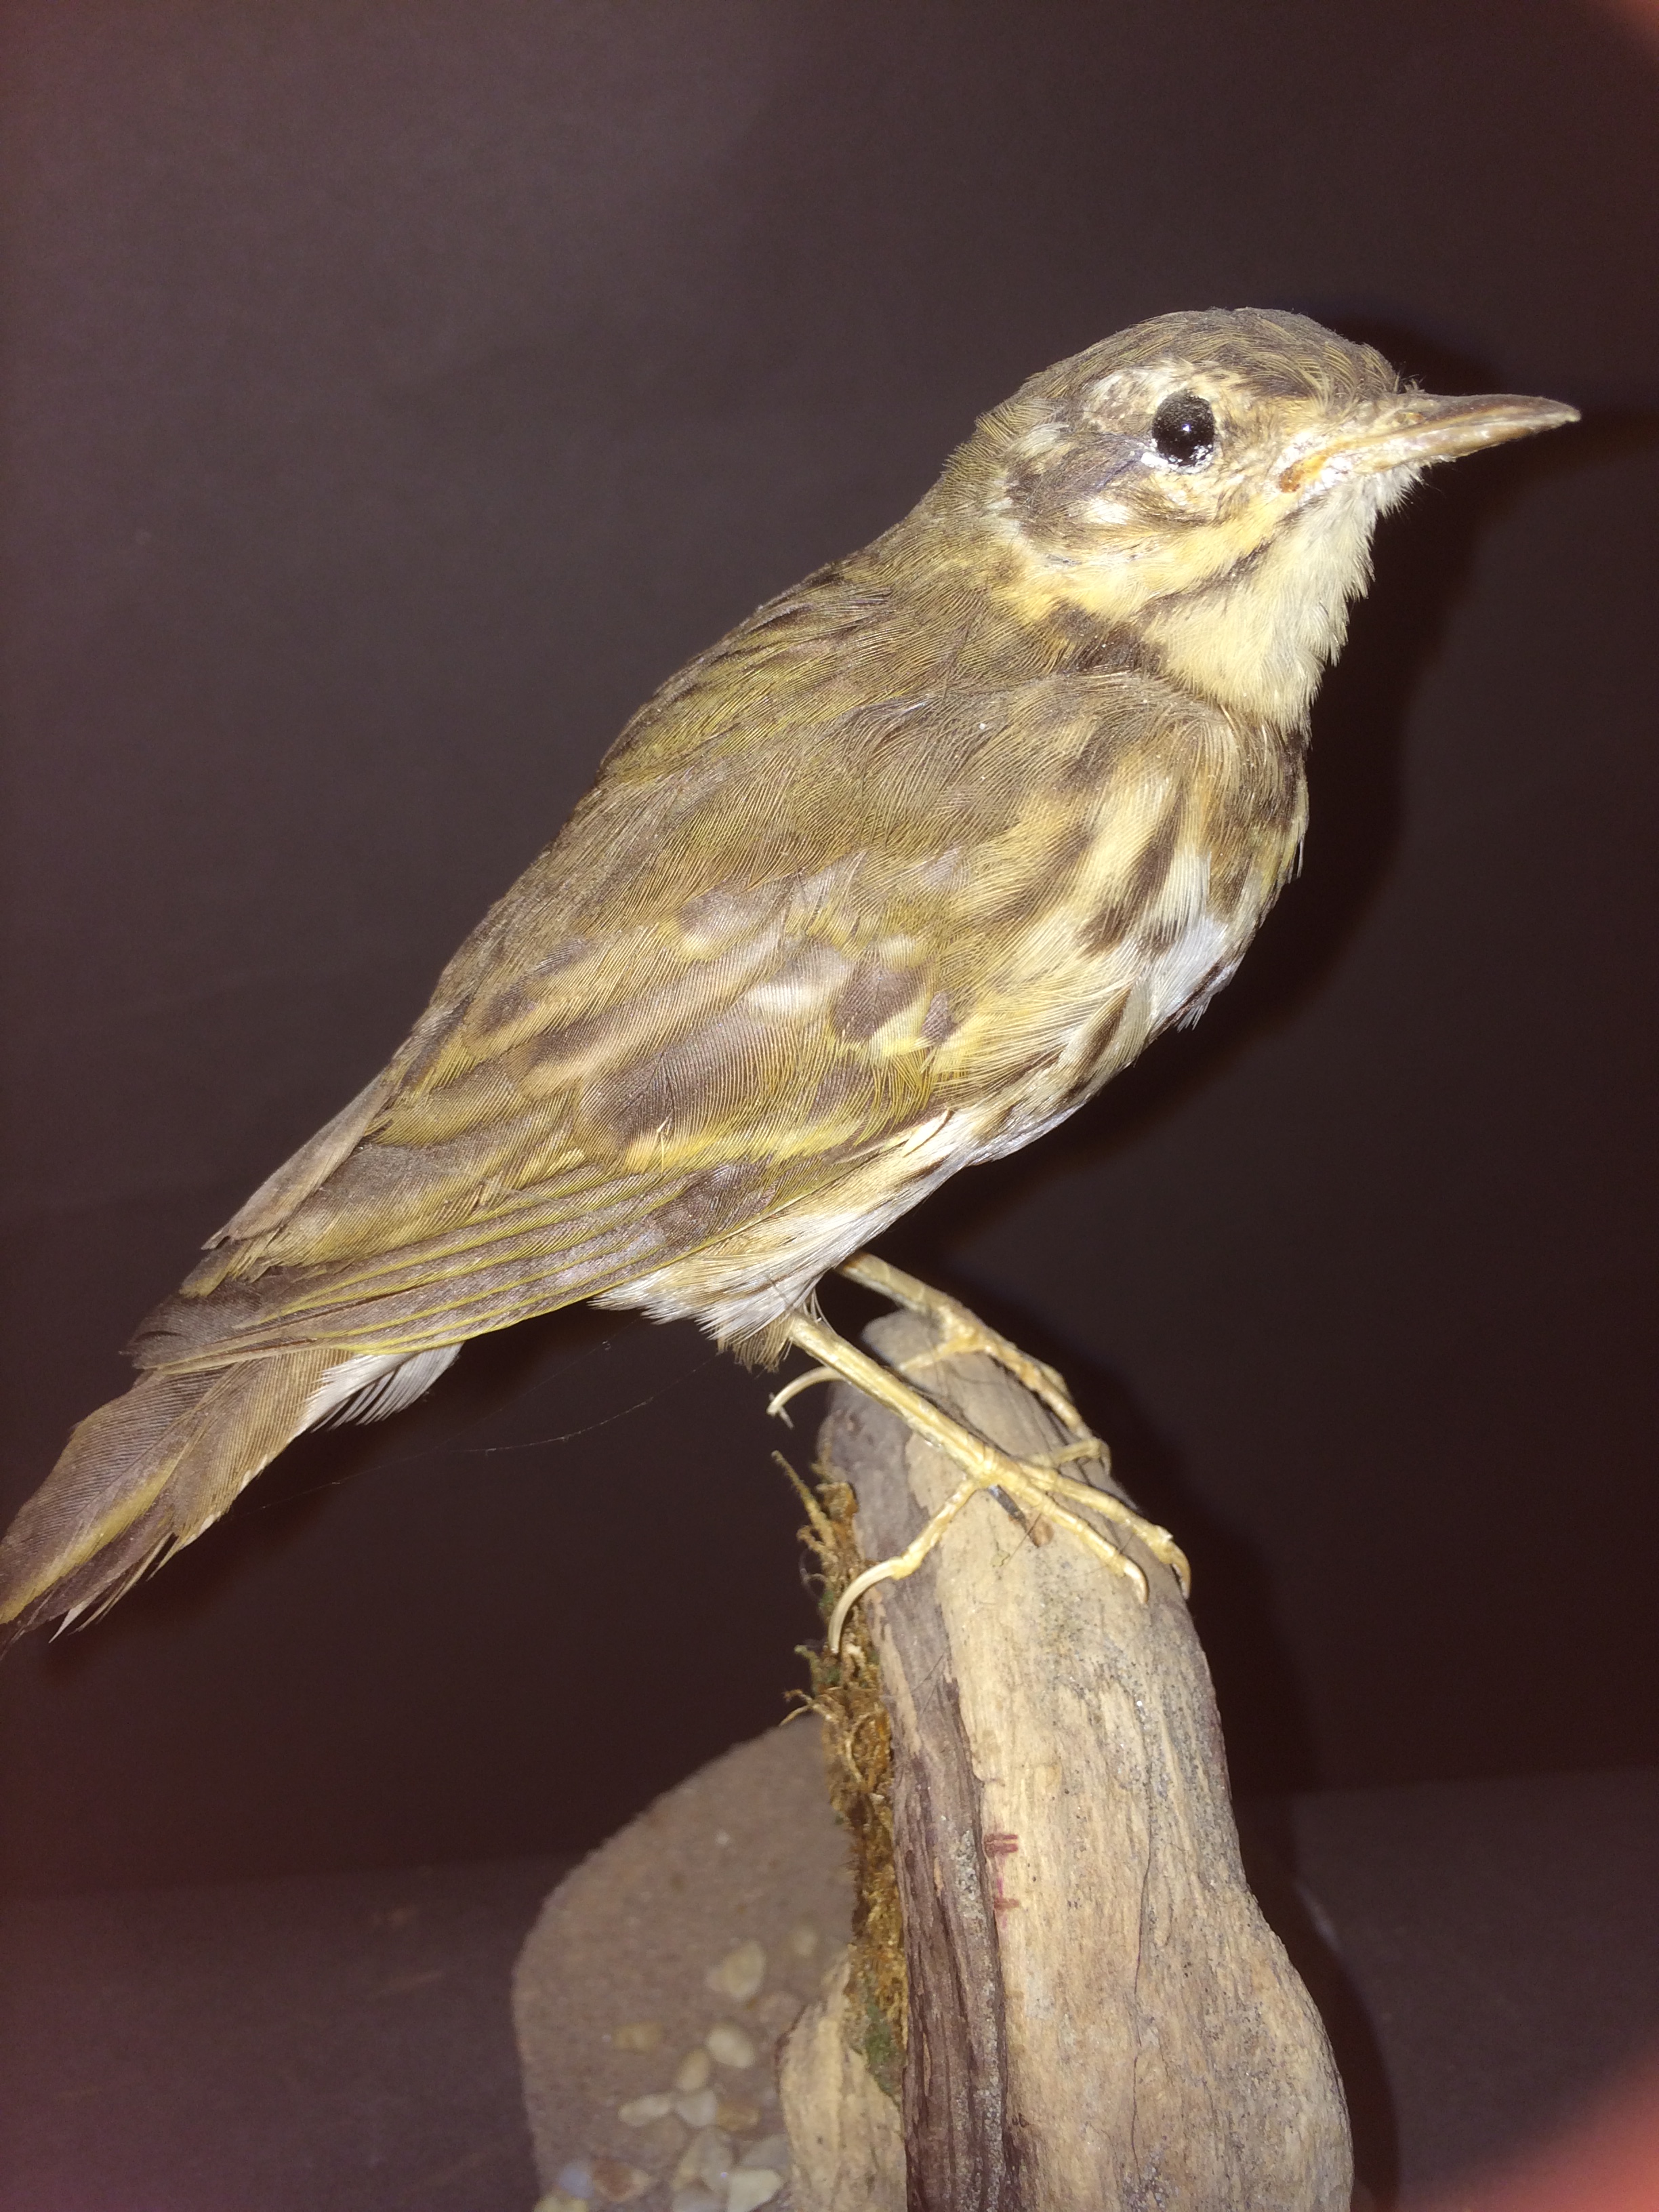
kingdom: Animalia
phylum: Chordata
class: Aves
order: Passeriformes
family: Motacillidae
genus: Anthus
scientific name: Anthus trivialis
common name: Tree pipit
